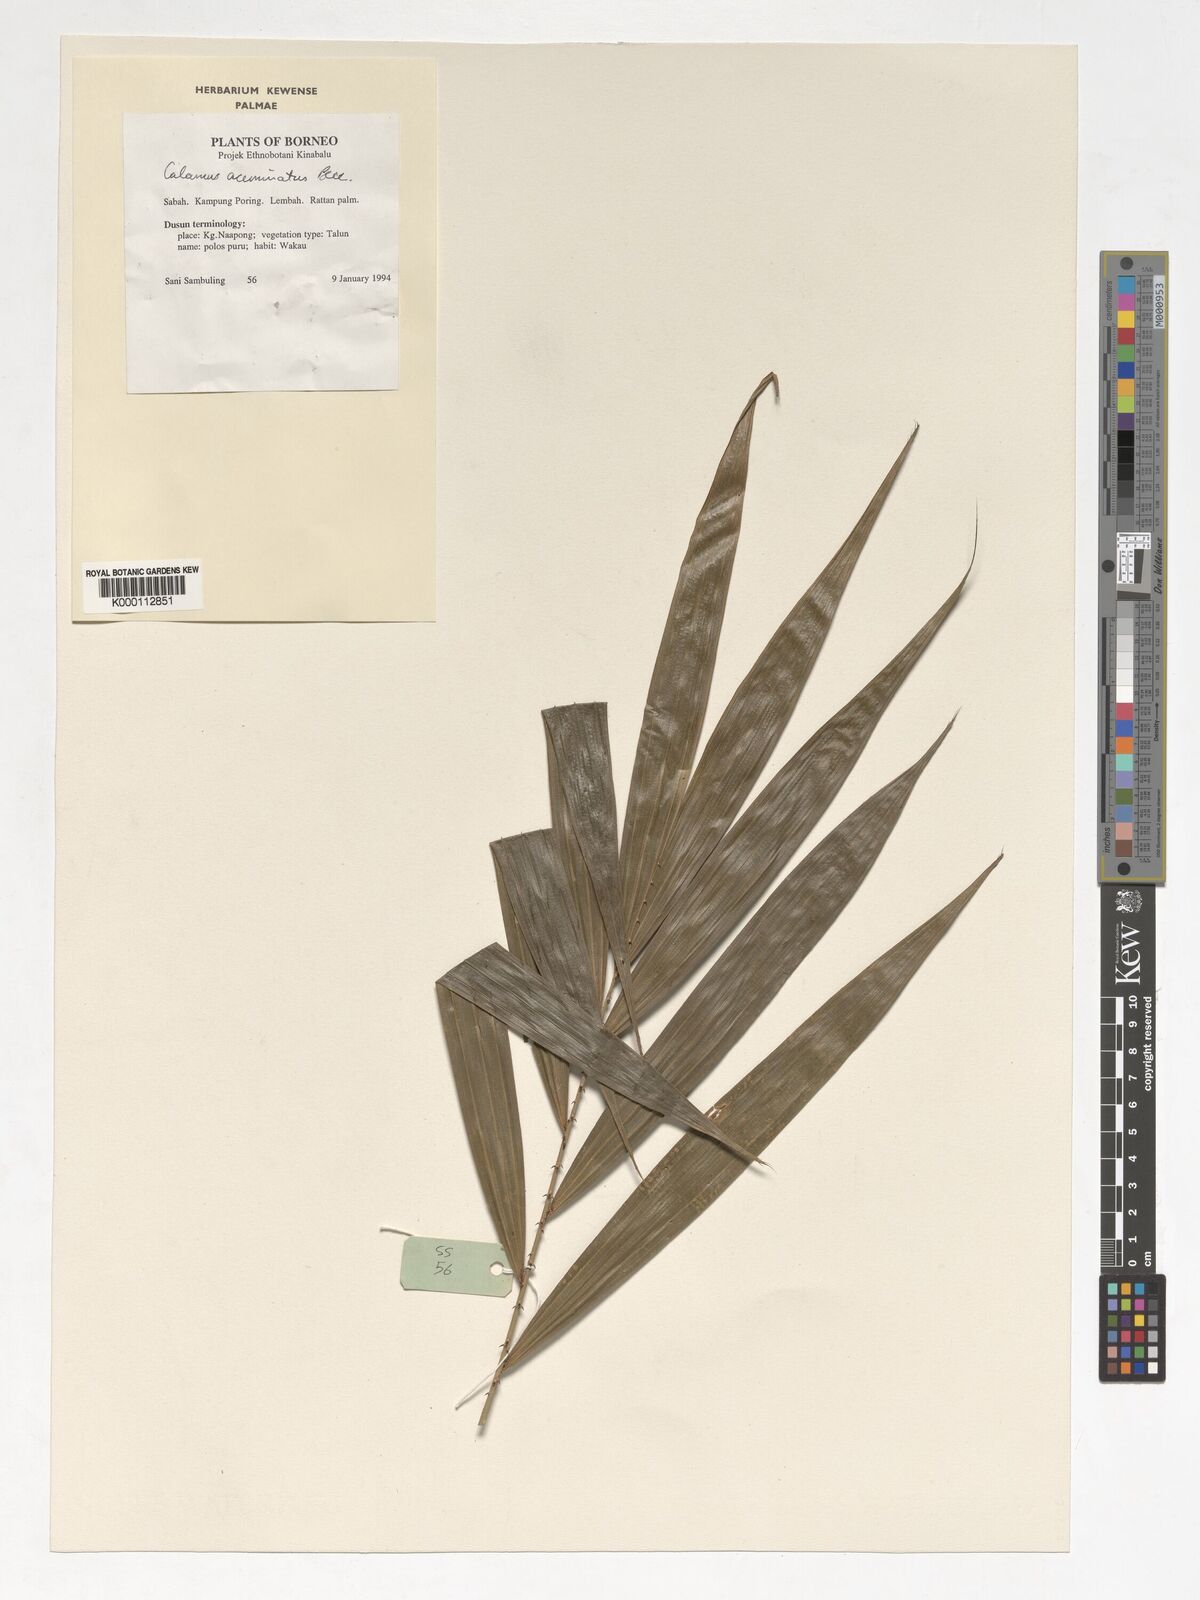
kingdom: Plantae
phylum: Tracheophyta
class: Liliopsida
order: Arecales
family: Arecaceae
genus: Calamus
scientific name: Calamus javensis
